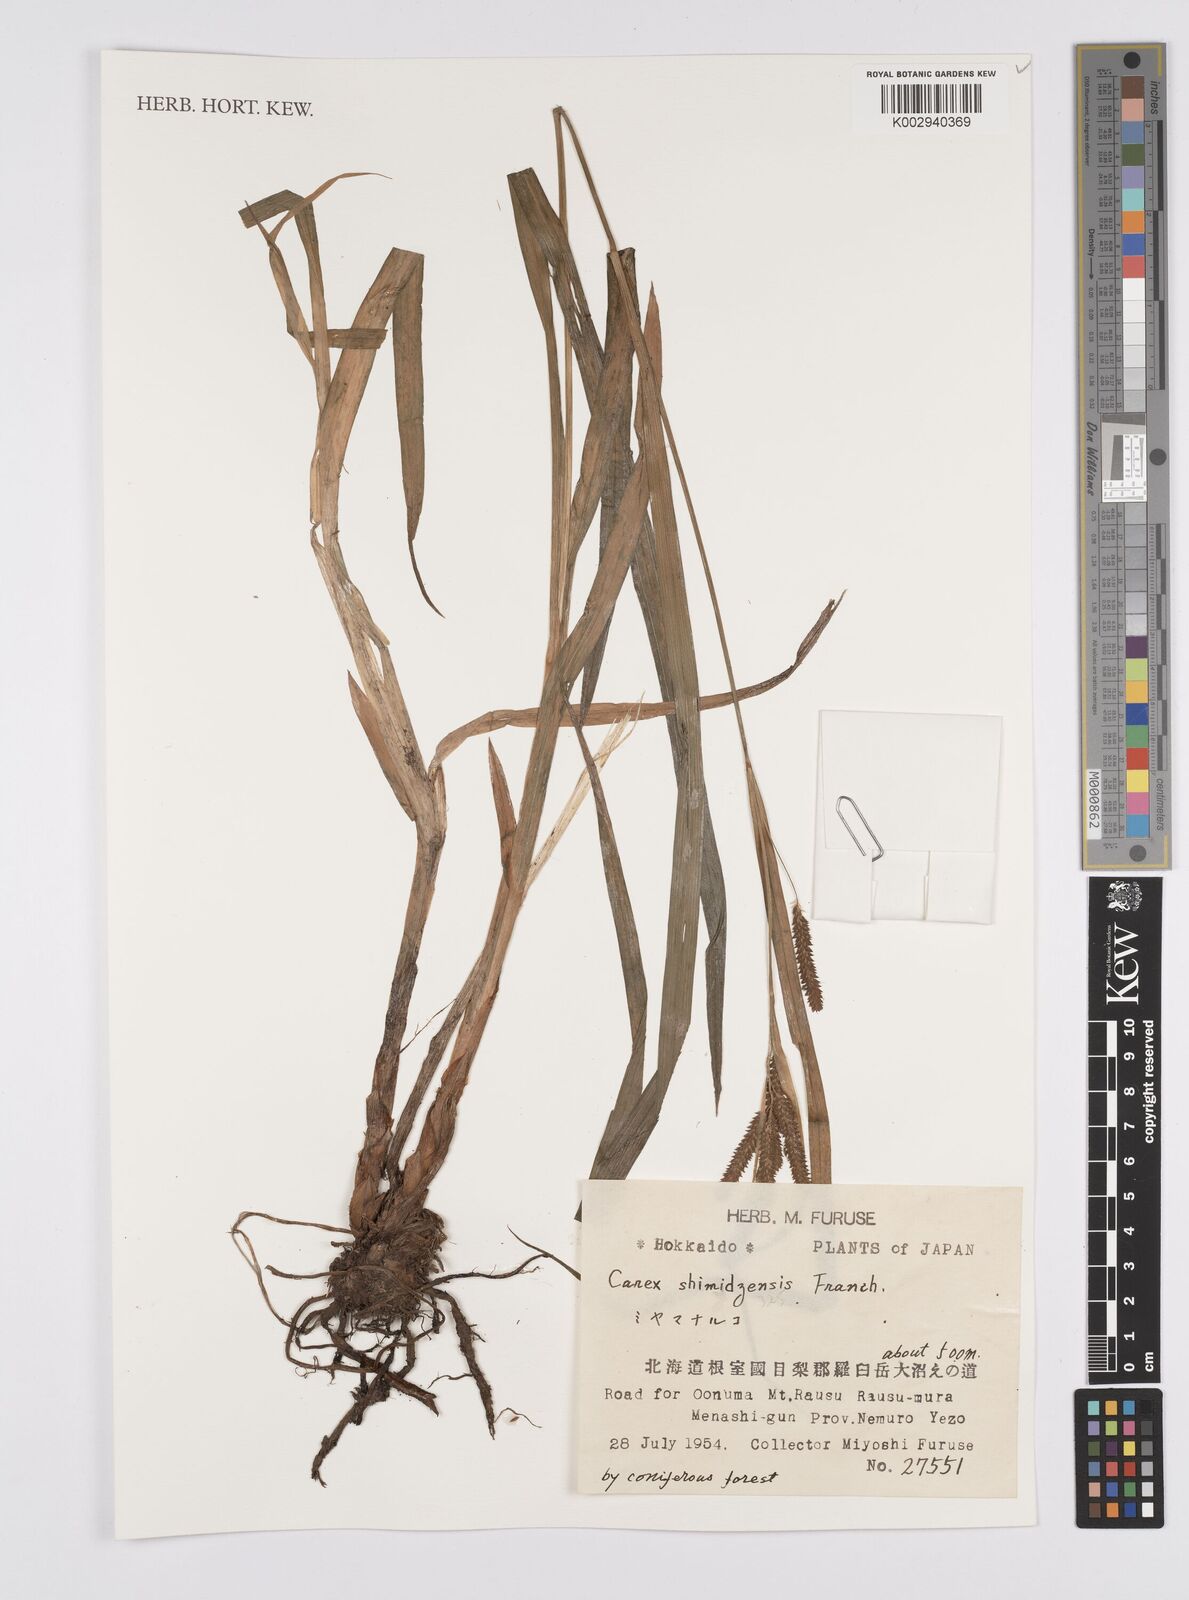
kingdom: Plantae
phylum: Tracheophyta
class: Liliopsida
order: Poales
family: Cyperaceae
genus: Carex
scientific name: Carex shimidzensis
